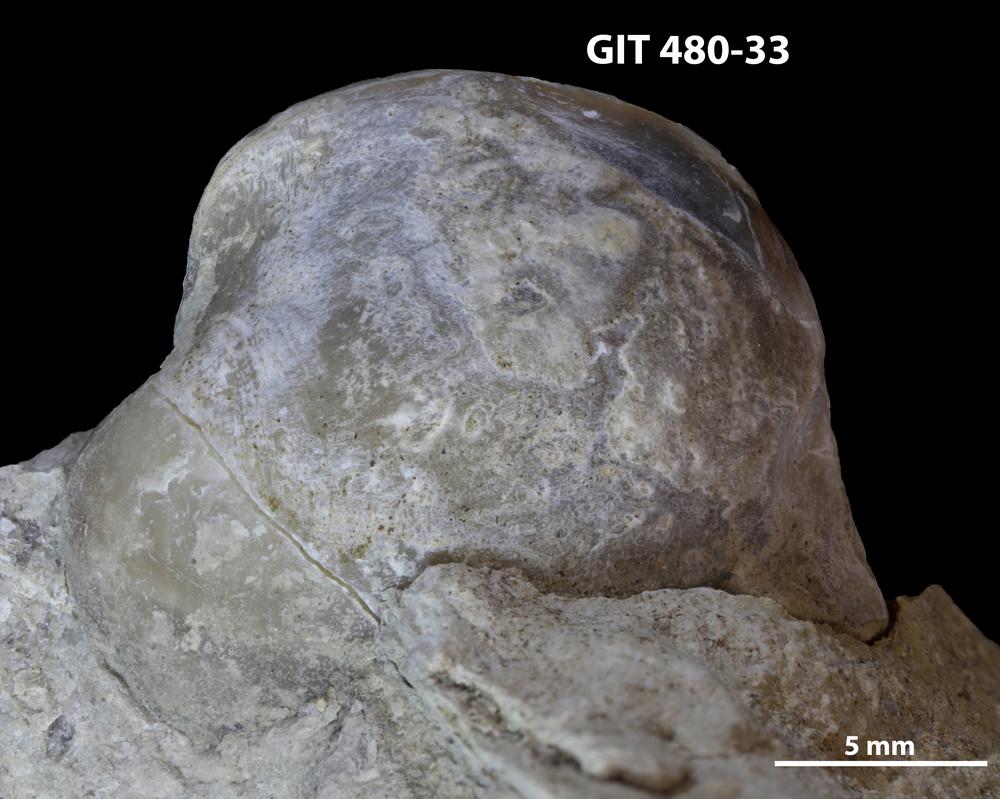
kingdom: Animalia
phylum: Brachiopoda
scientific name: Brachiopoda
